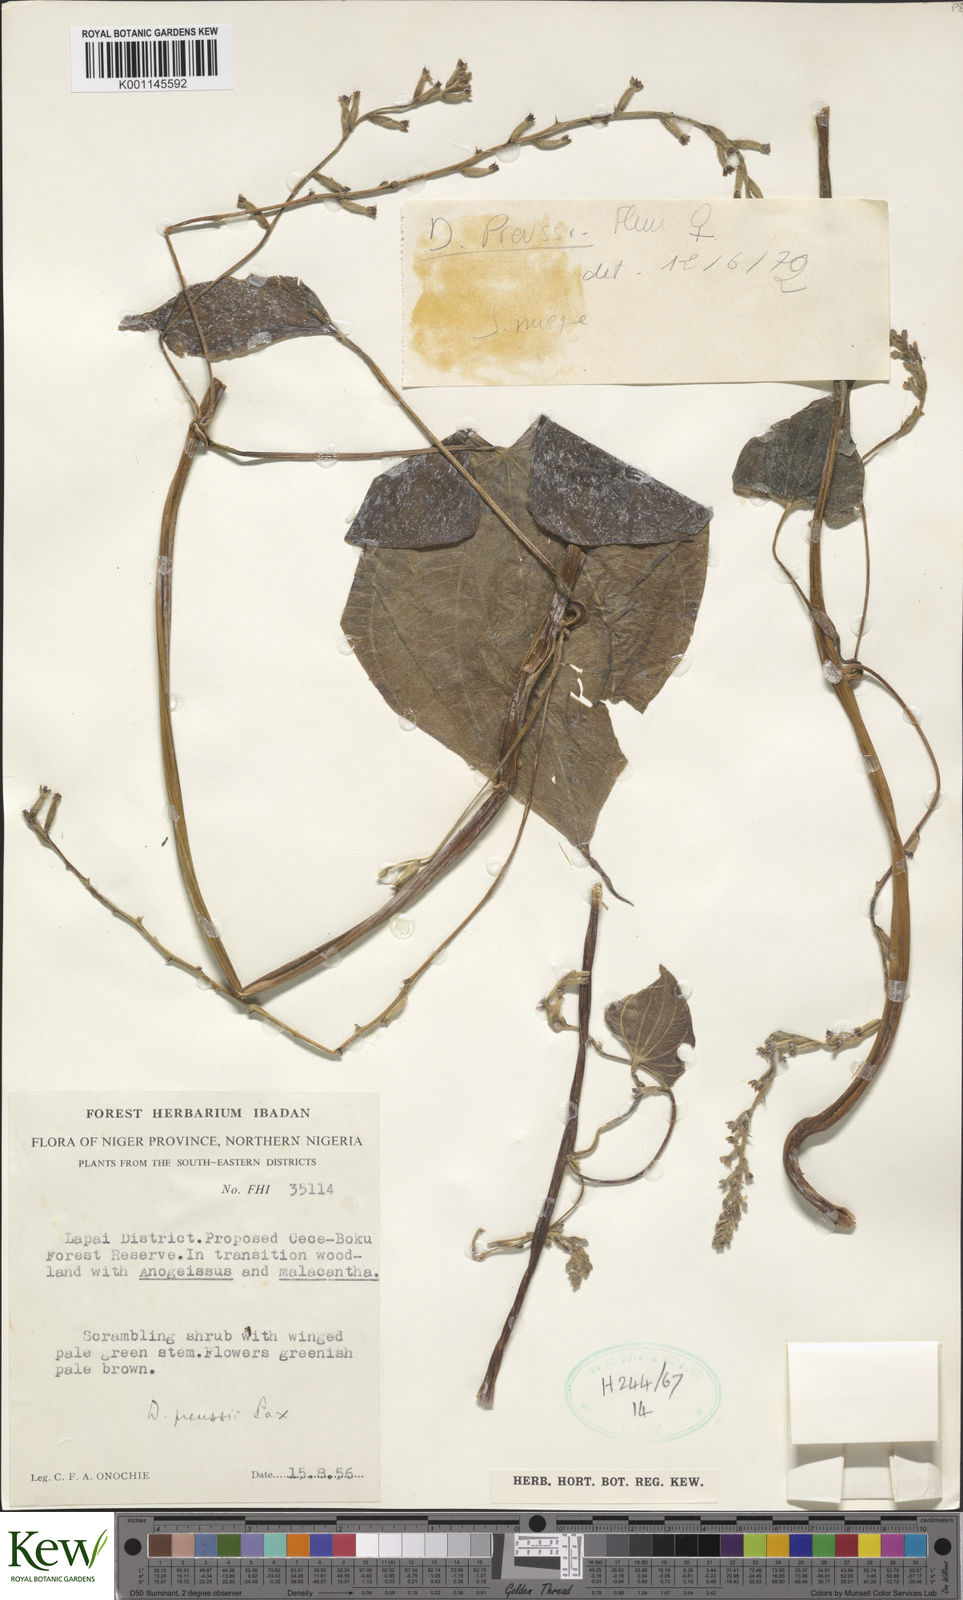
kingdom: Plantae
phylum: Tracheophyta
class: Liliopsida
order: Dioscoreales
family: Dioscoreaceae
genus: Dioscorea
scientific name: Dioscorea preussii
